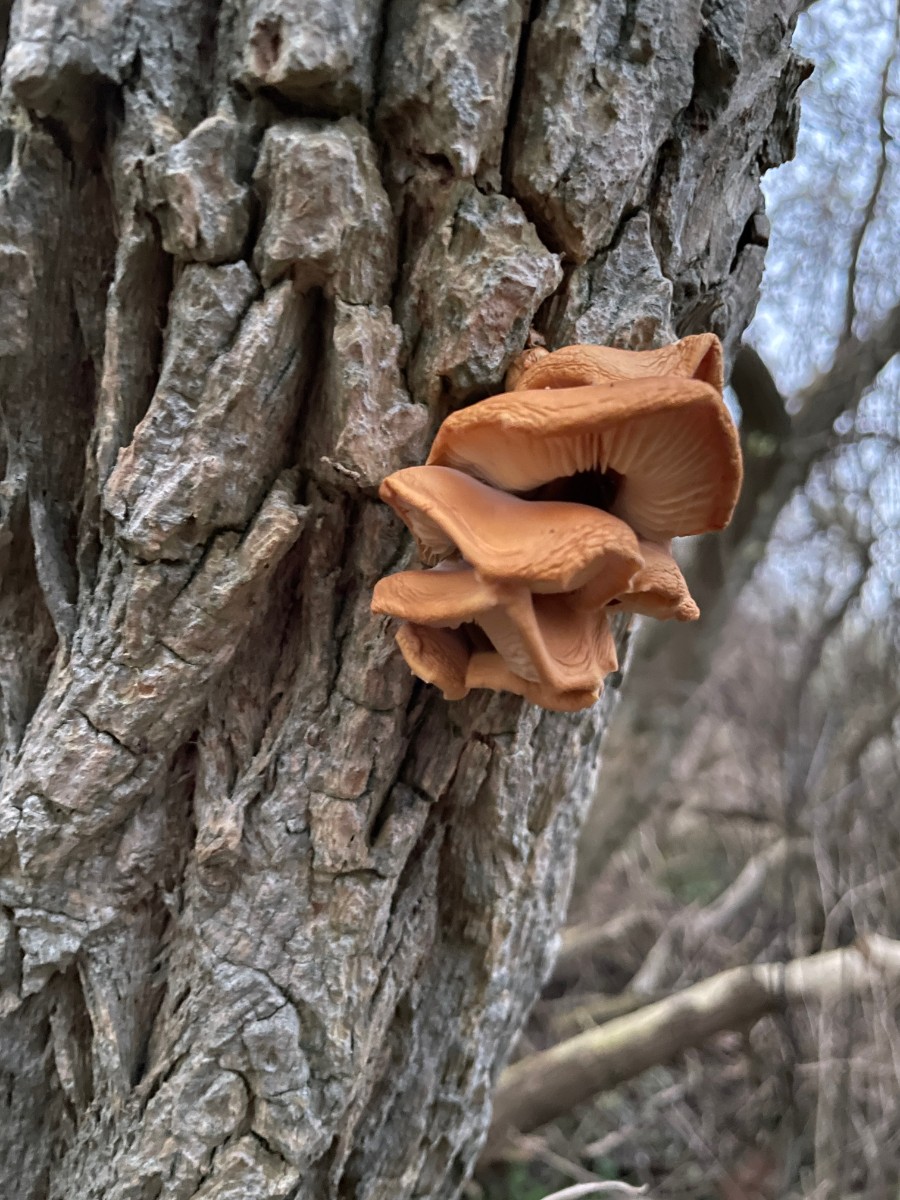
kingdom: Fungi
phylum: Basidiomycota
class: Agaricomycetes
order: Agaricales
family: Physalacriaceae
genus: Flammulina
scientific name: Flammulina
